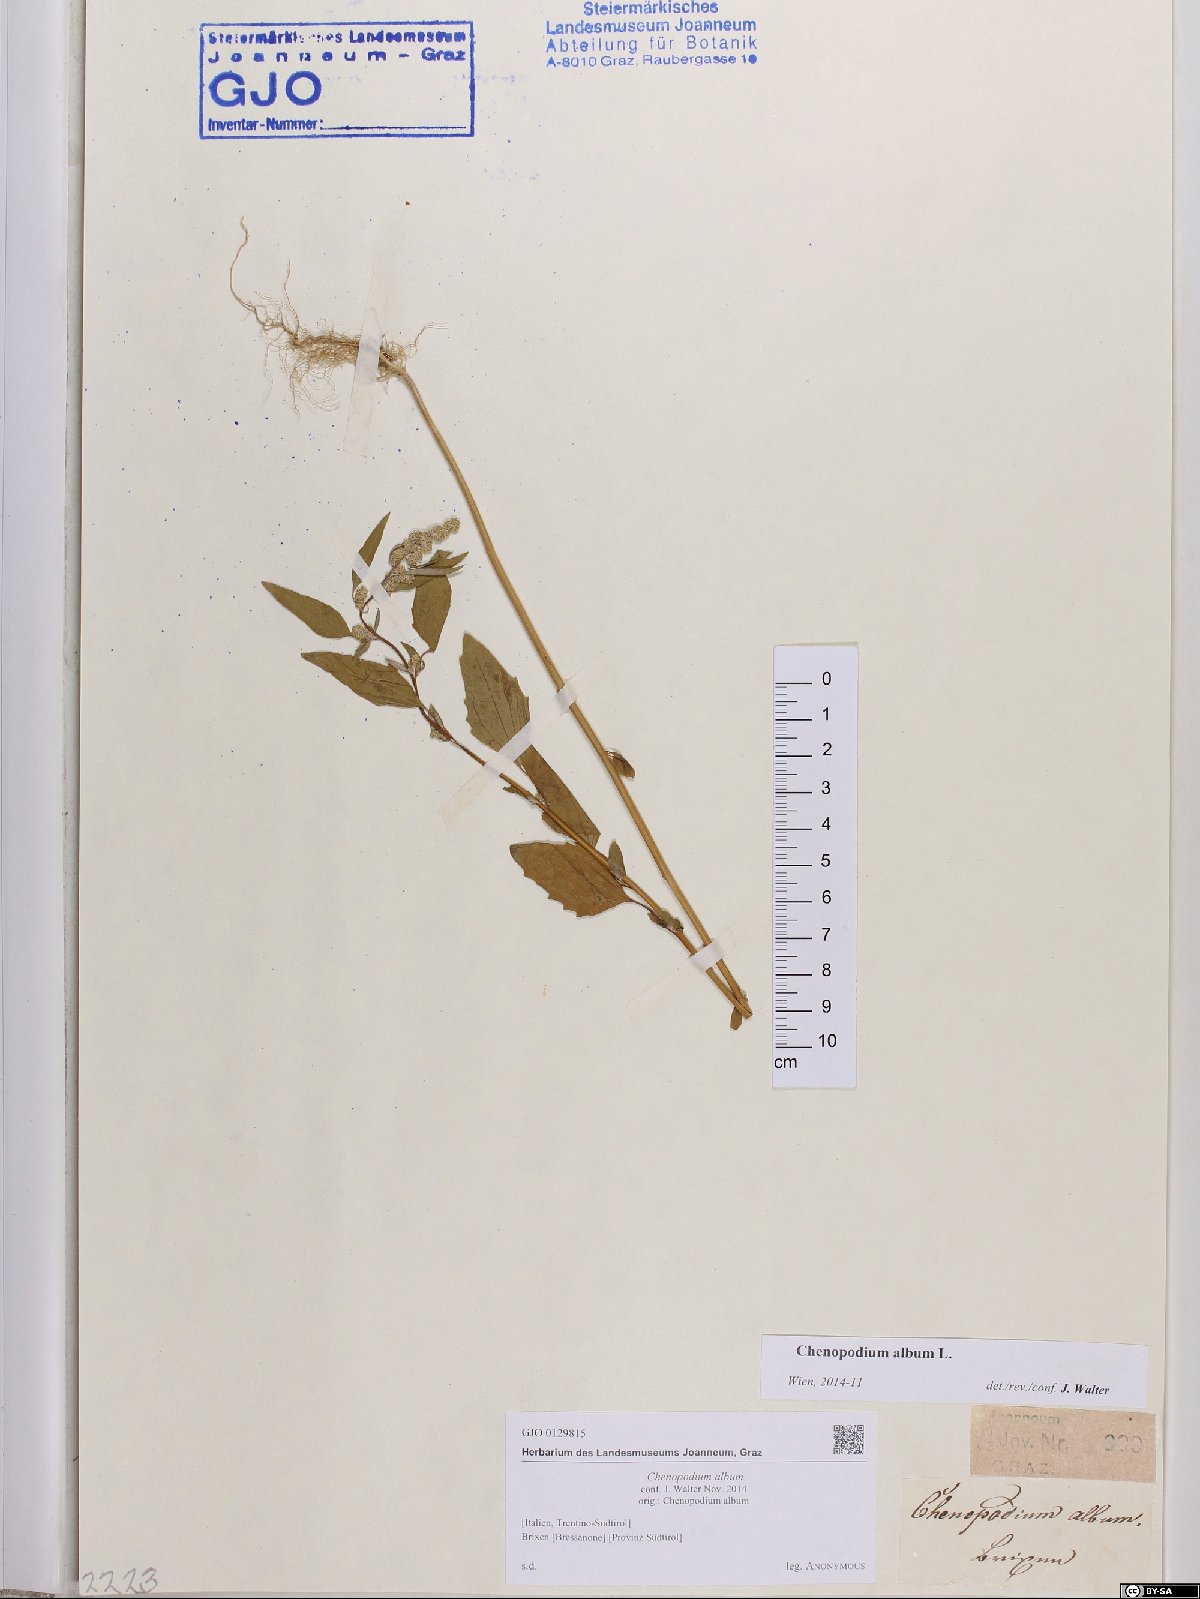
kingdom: Plantae
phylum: Tracheophyta
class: Magnoliopsida
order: Caryophyllales
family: Amaranthaceae
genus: Chenopodium
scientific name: Chenopodium album
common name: Fat-hen
